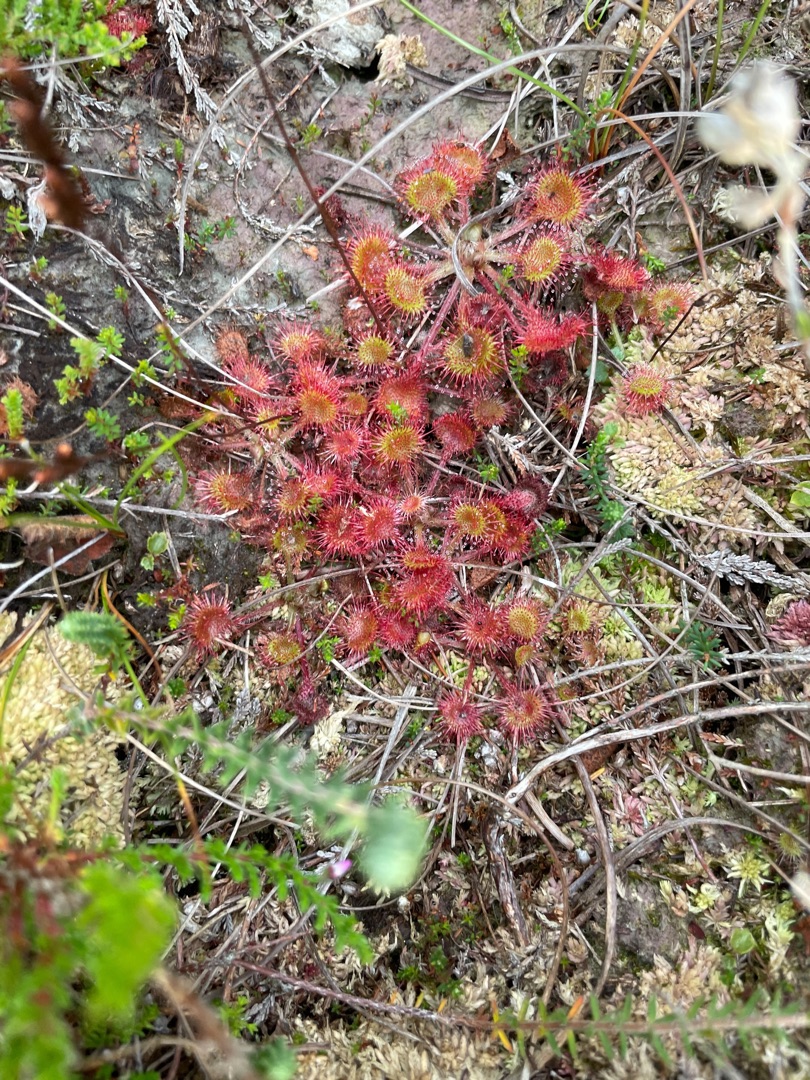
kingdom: Plantae
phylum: Tracheophyta
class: Magnoliopsida
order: Caryophyllales
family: Droseraceae
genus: Drosera
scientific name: Drosera rotundifolia
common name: Rundbladet soldug
